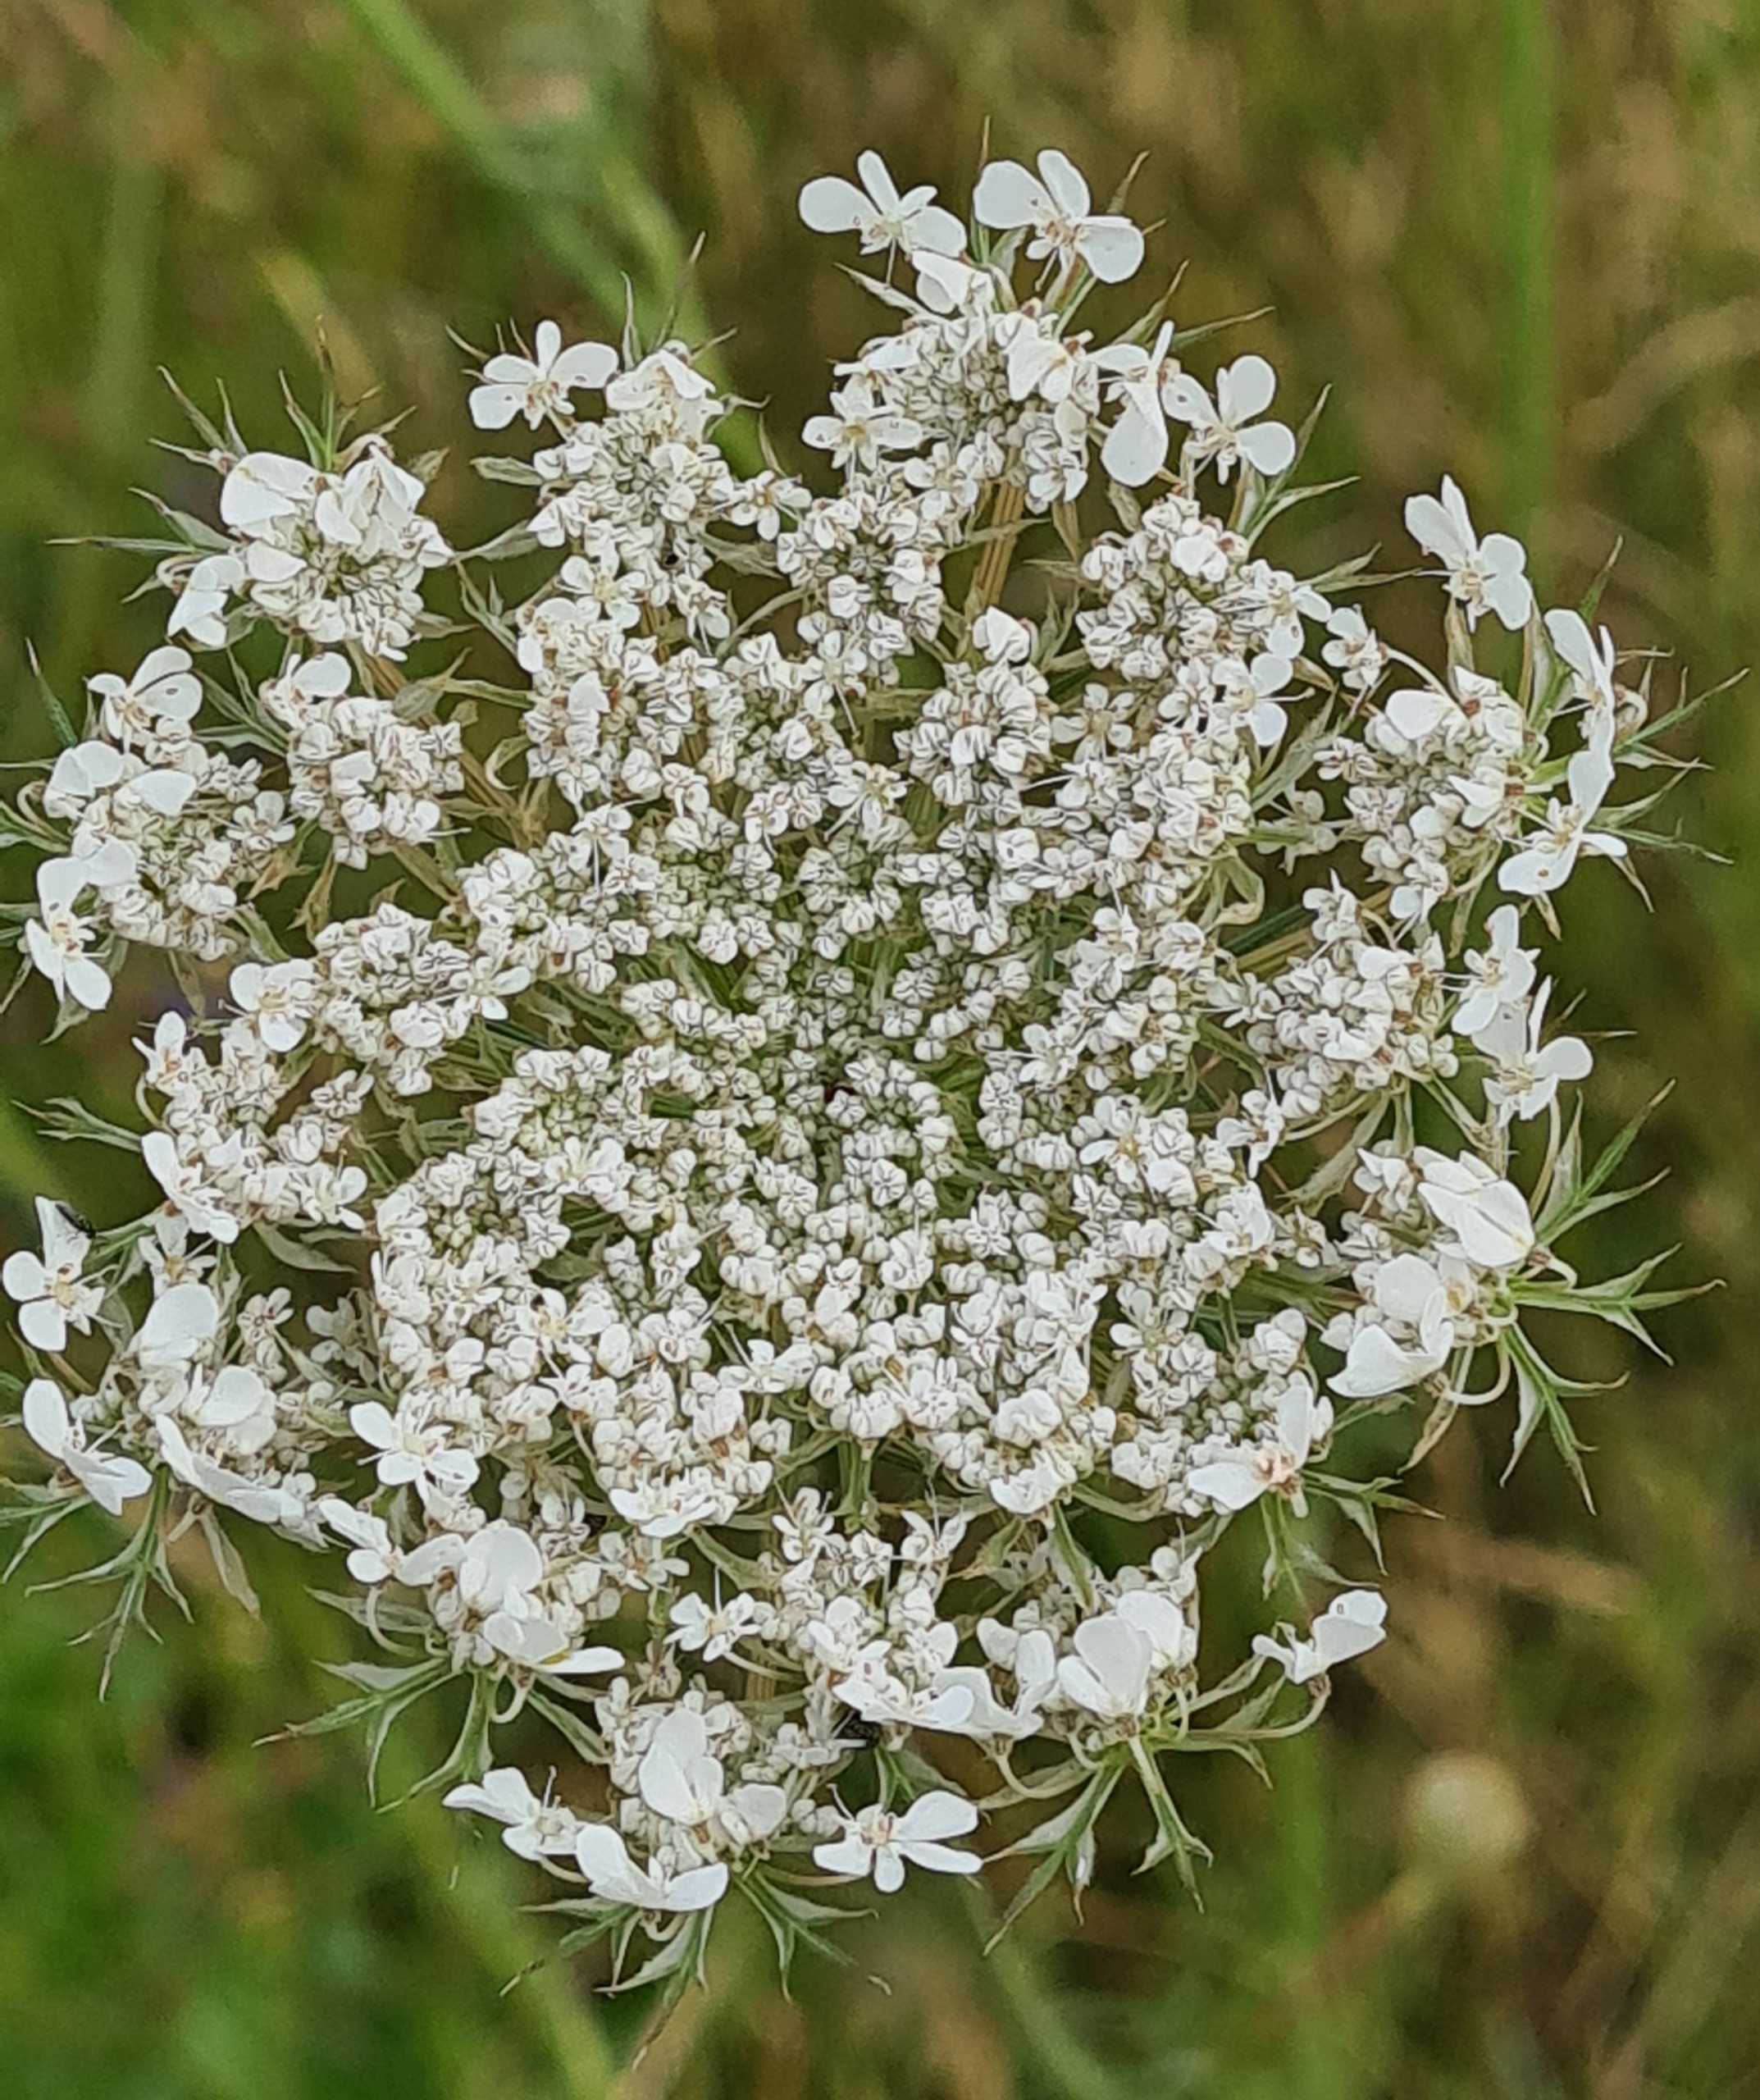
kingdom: Plantae
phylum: Tracheophyta
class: Magnoliopsida
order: Apiales
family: Apiaceae
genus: Daucus
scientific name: Daucus carota
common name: Gulerod
